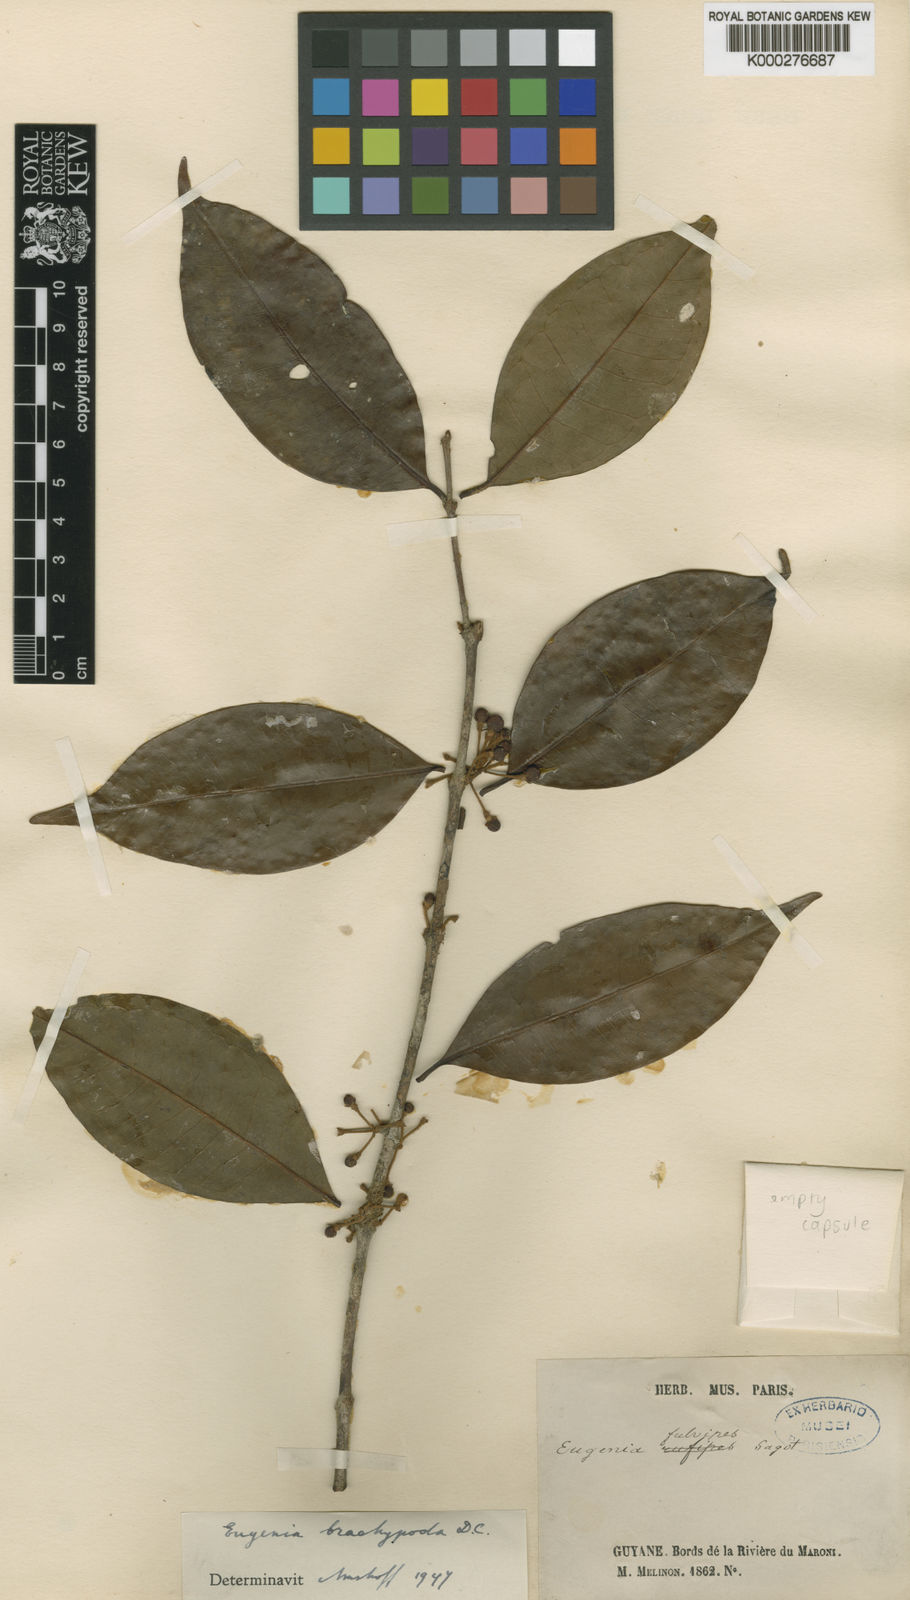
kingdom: Plantae
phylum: Tracheophyta
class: Magnoliopsida
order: Myrtales
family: Myrtaceae
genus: Eugenia
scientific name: Eugenia ramiflora
